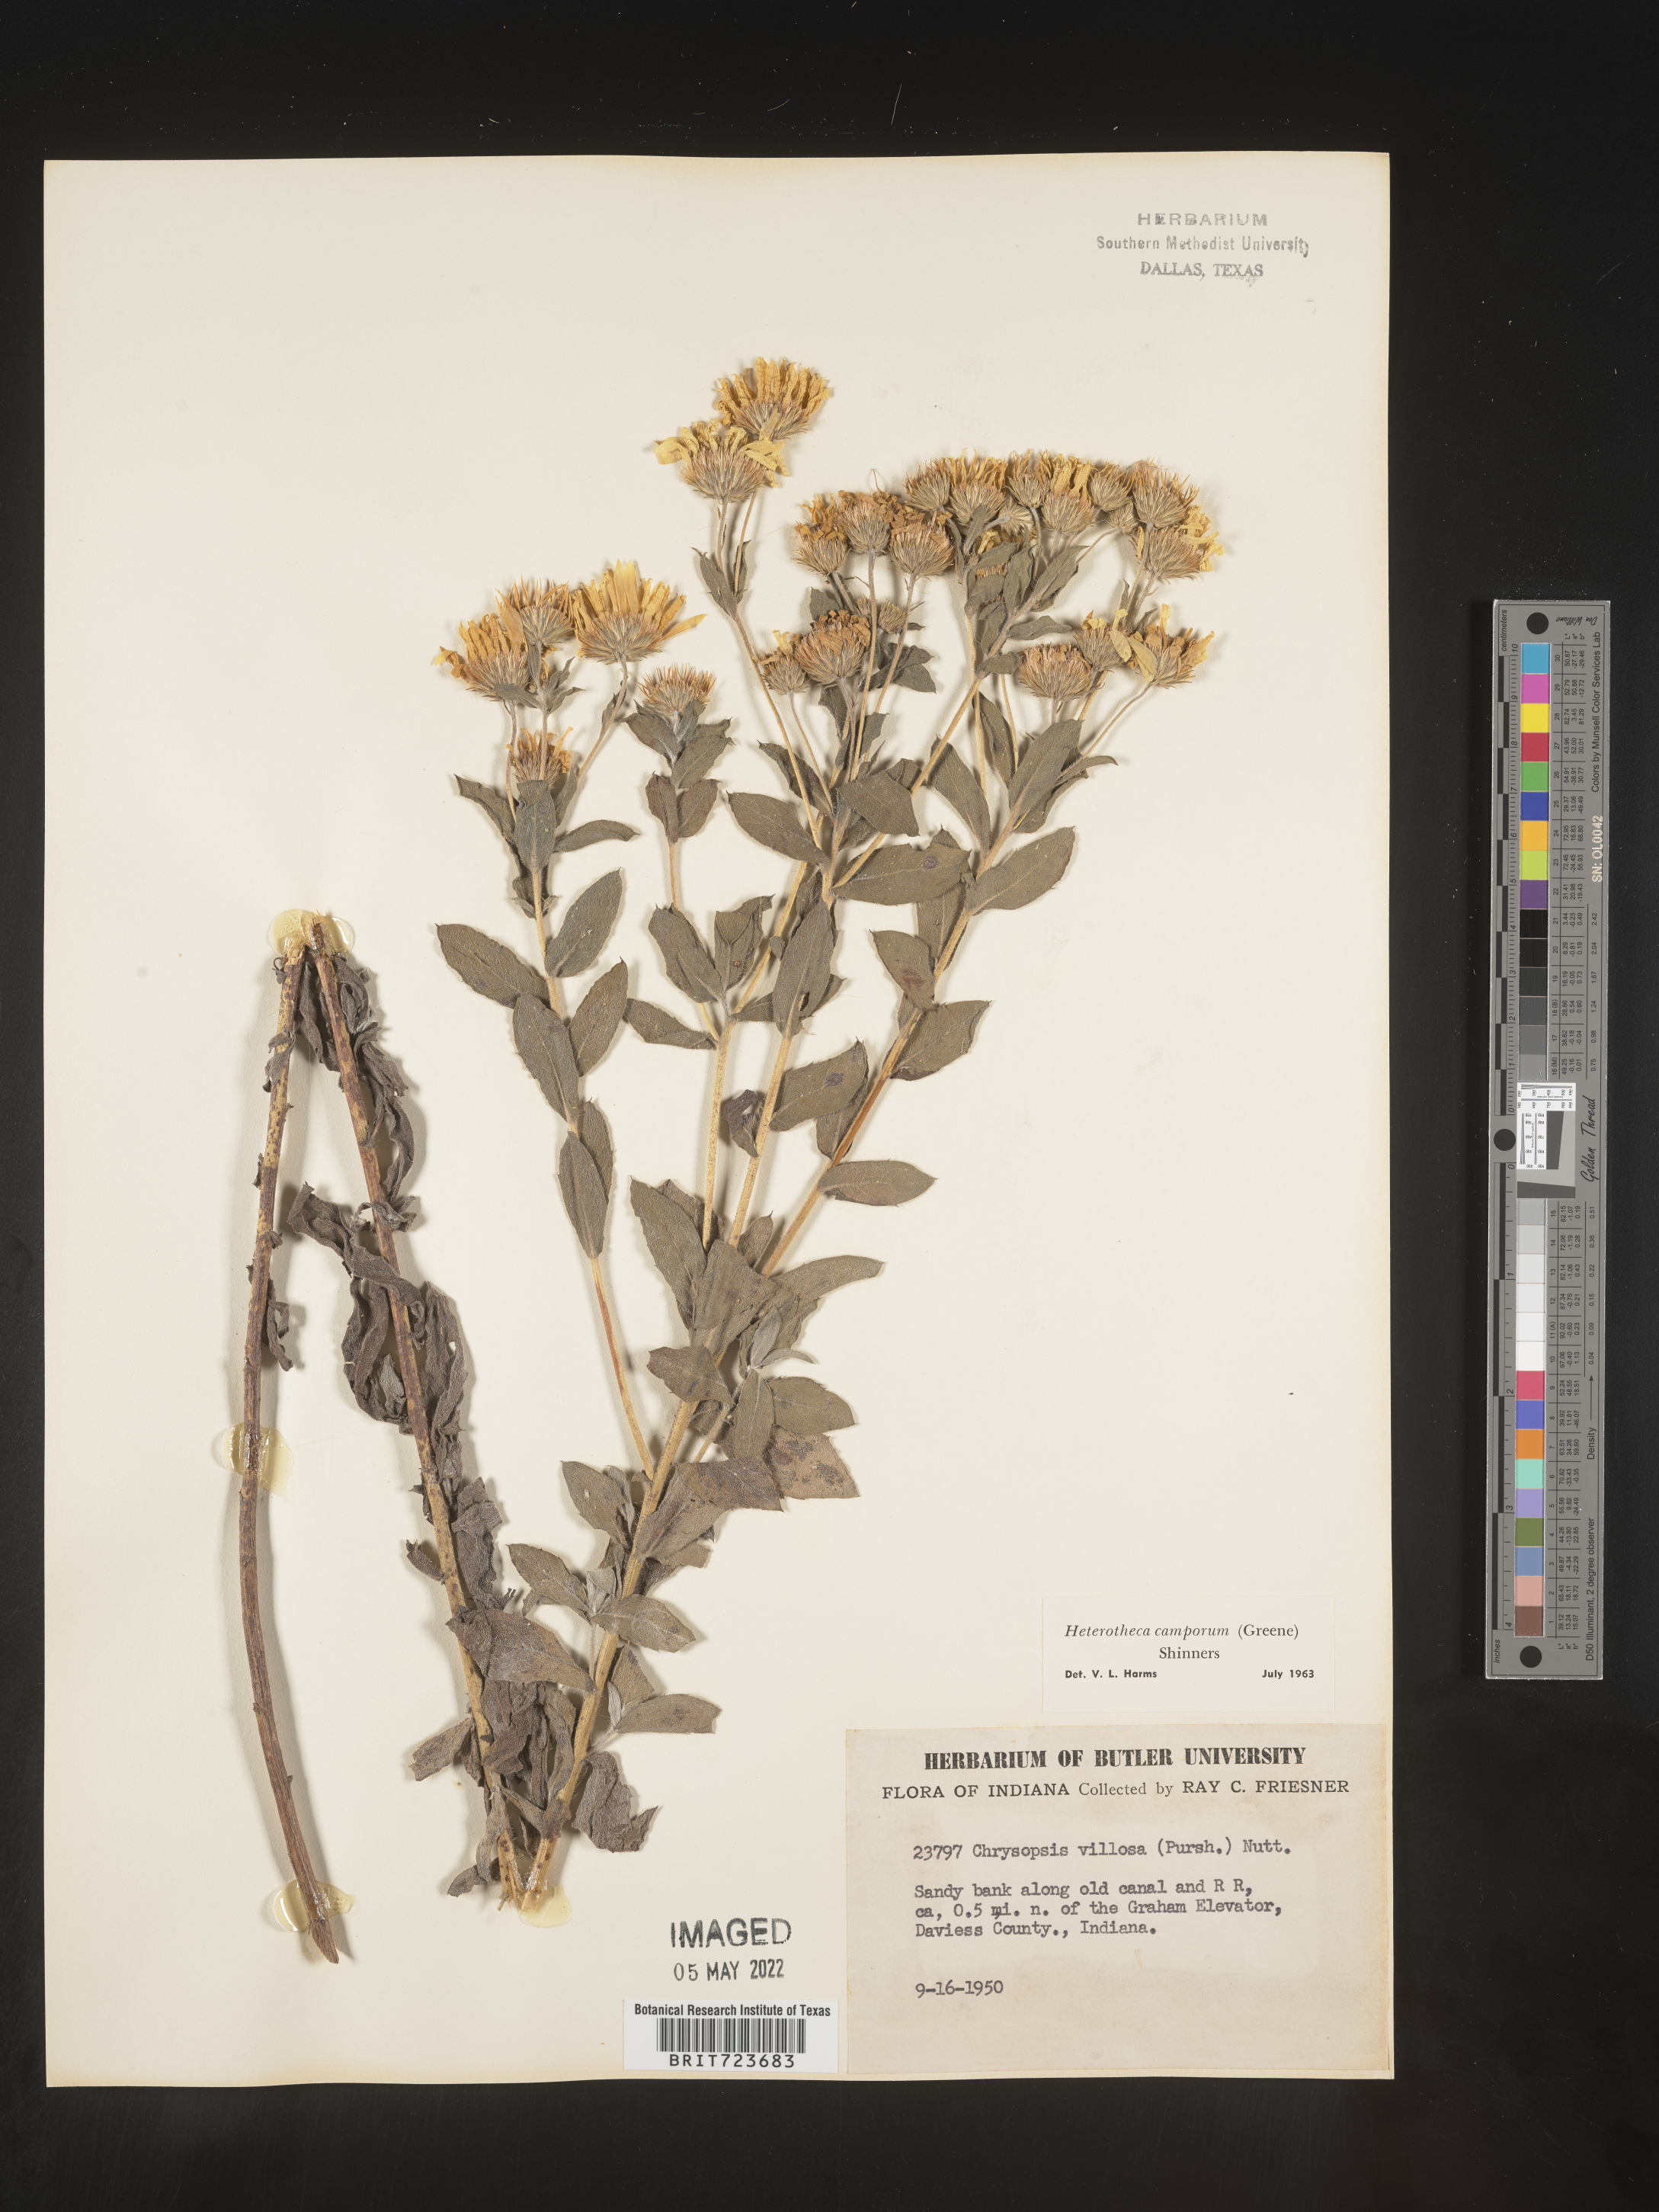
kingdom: Plantae
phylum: Tracheophyta
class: Magnoliopsida
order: Asterales
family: Asteraceae
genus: Heterotheca
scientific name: Heterotheca camporum
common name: Prairie golden-aster
